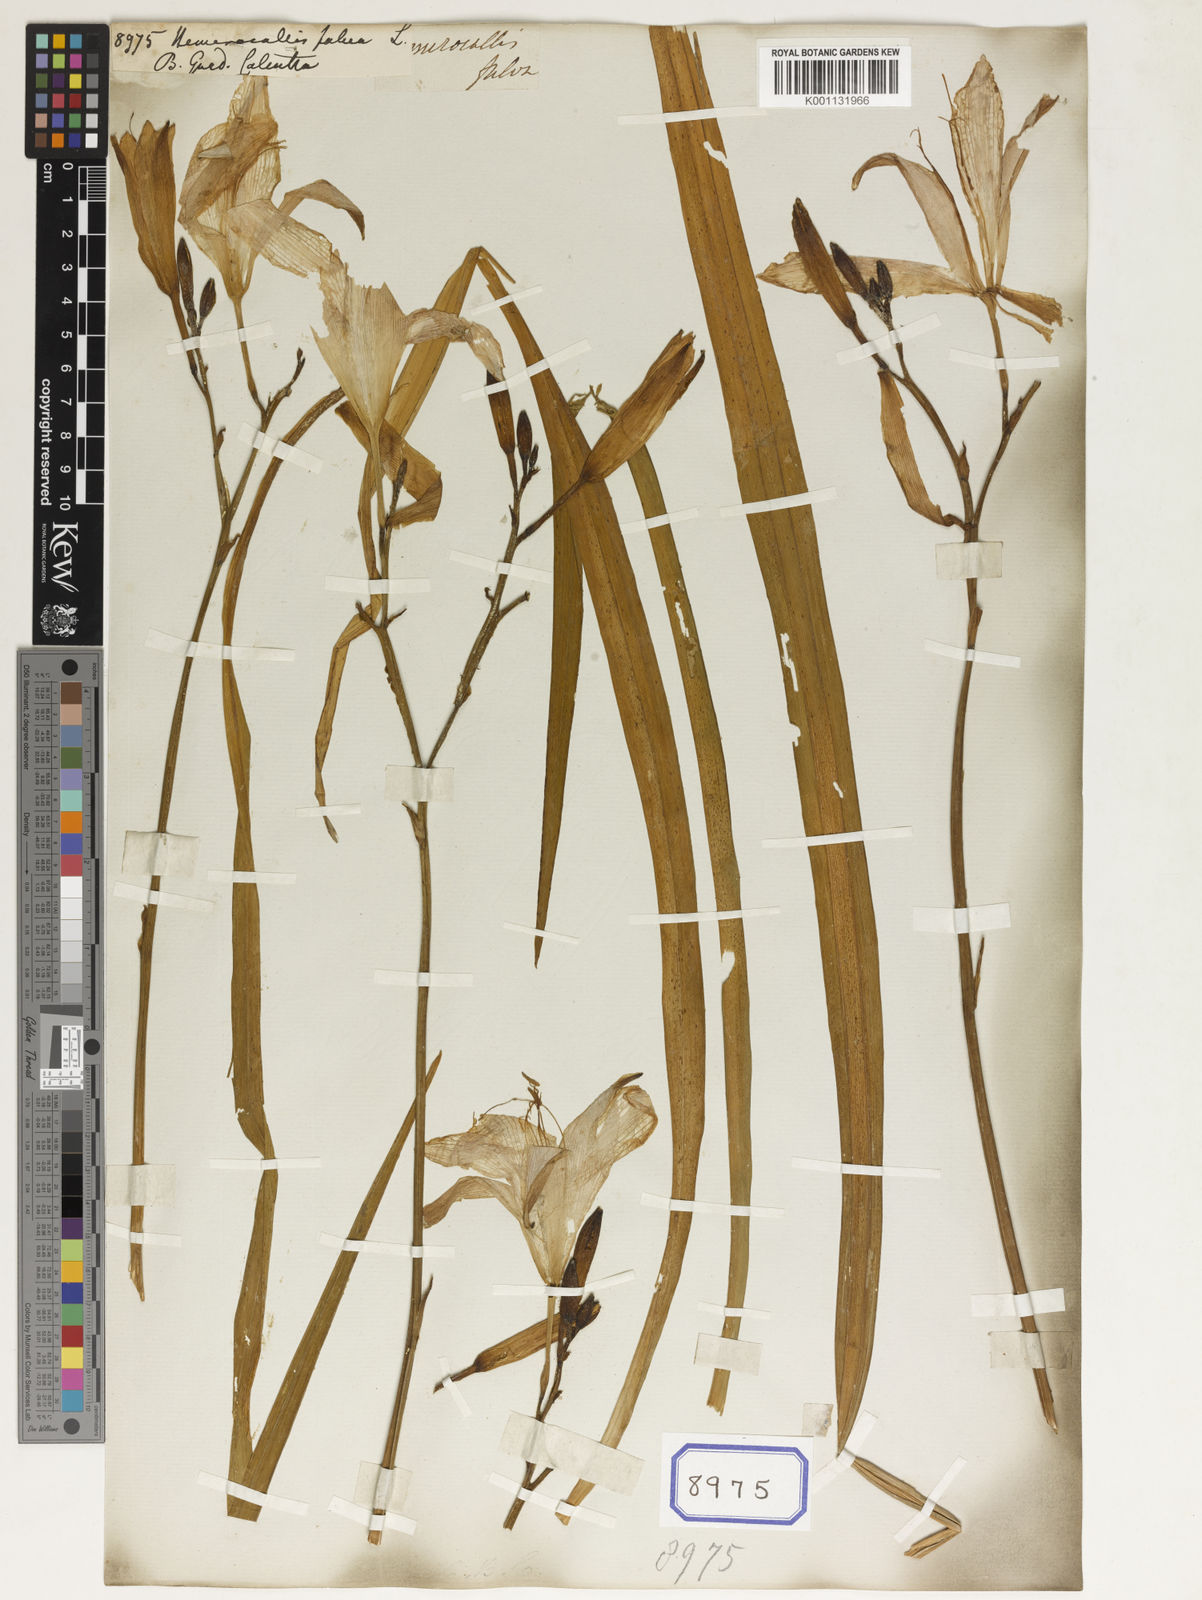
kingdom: Plantae
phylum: Tracheophyta
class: Liliopsida
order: Asparagales
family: Asphodelaceae
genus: Hemerocallis
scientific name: Hemerocallis fulva
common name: Orange day-lily
